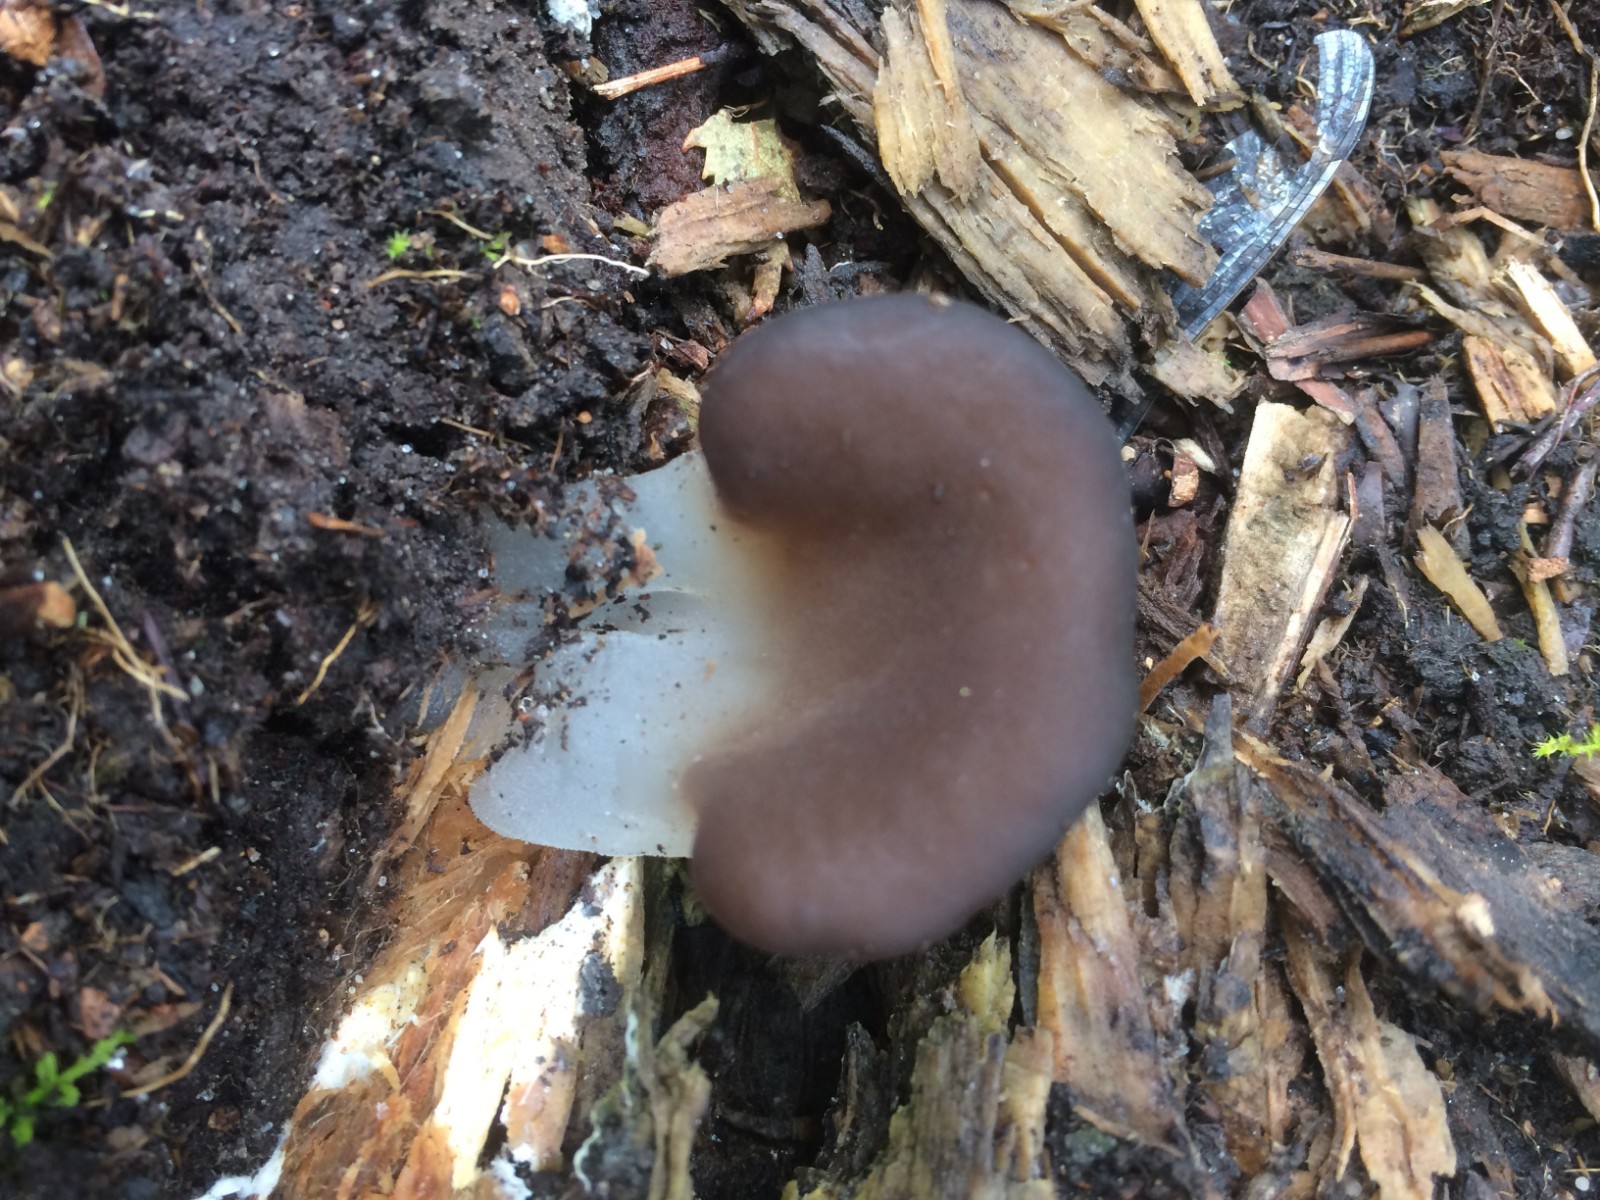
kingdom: Fungi
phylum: Basidiomycota
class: Agaricomycetes
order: Auriculariales
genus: Pseudohydnum
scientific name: Pseudohydnum gelatinosum
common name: bævretand
